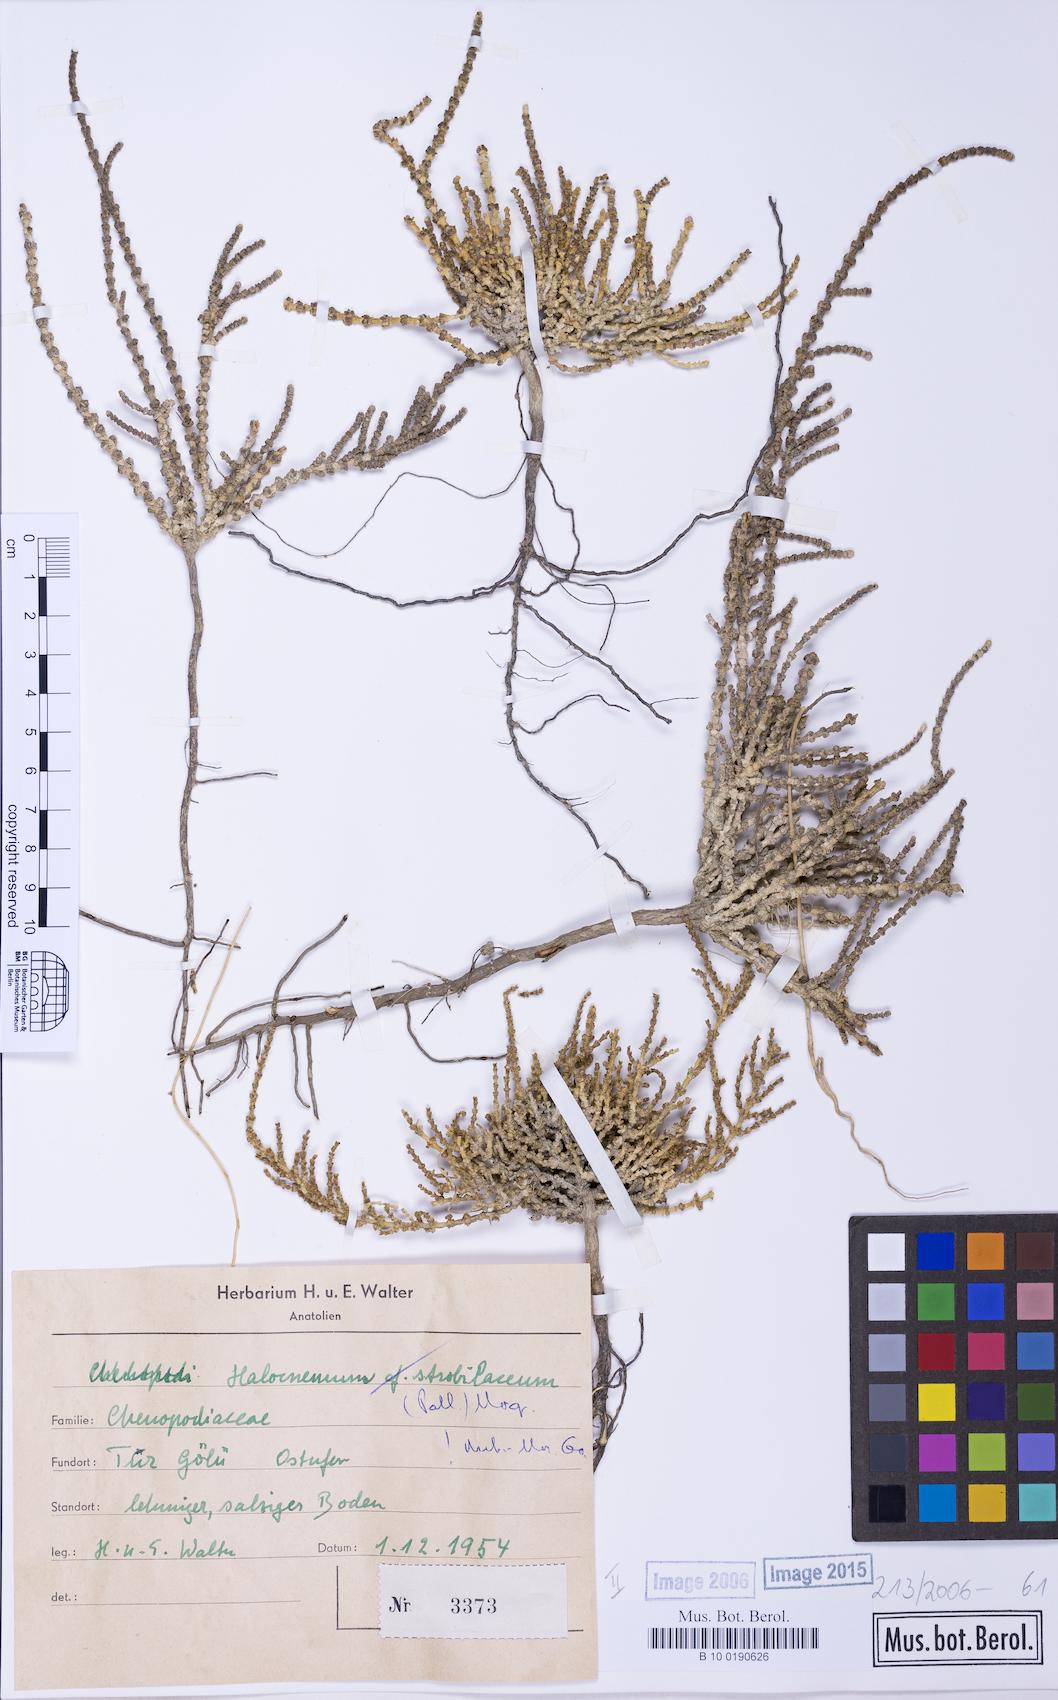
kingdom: Plantae
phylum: Tracheophyta
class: Magnoliopsida
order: Caryophyllales
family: Amaranthaceae
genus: Halocnemum
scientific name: Halocnemum strobilaceum
